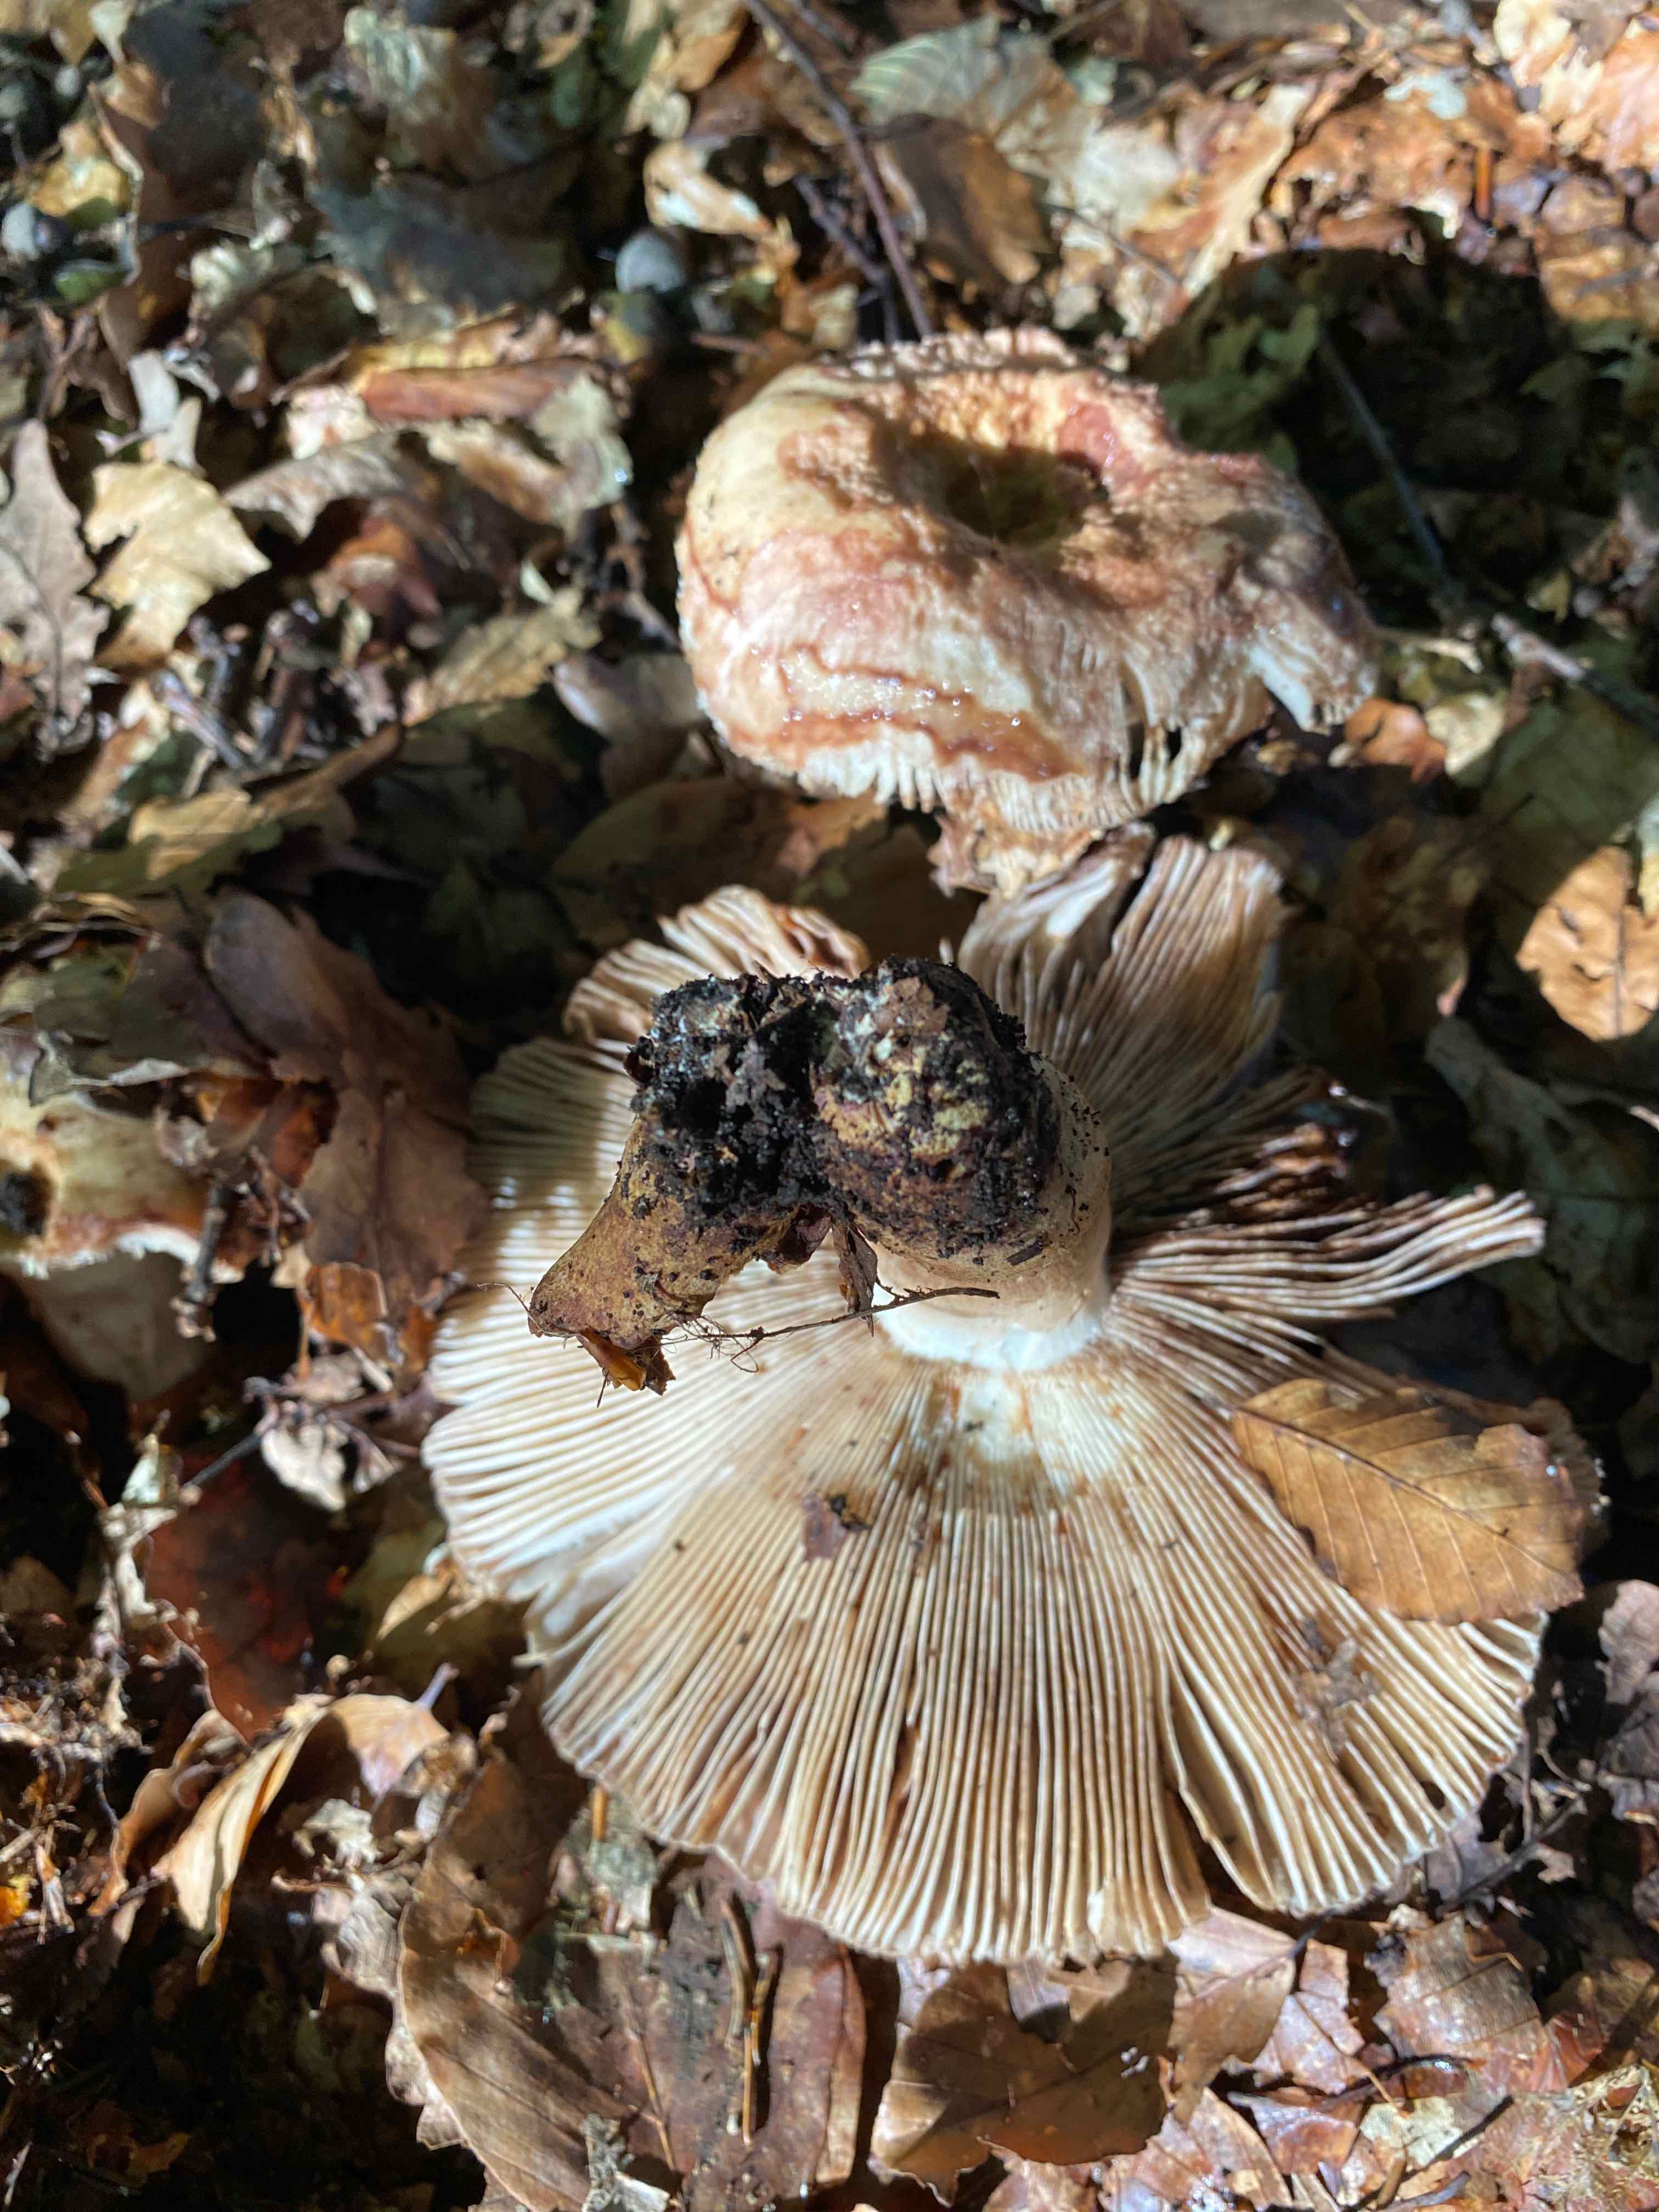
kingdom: Fungi
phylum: Basidiomycota
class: Agaricomycetes
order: Russulales
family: Russulaceae
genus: Russula
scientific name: Russula grata
